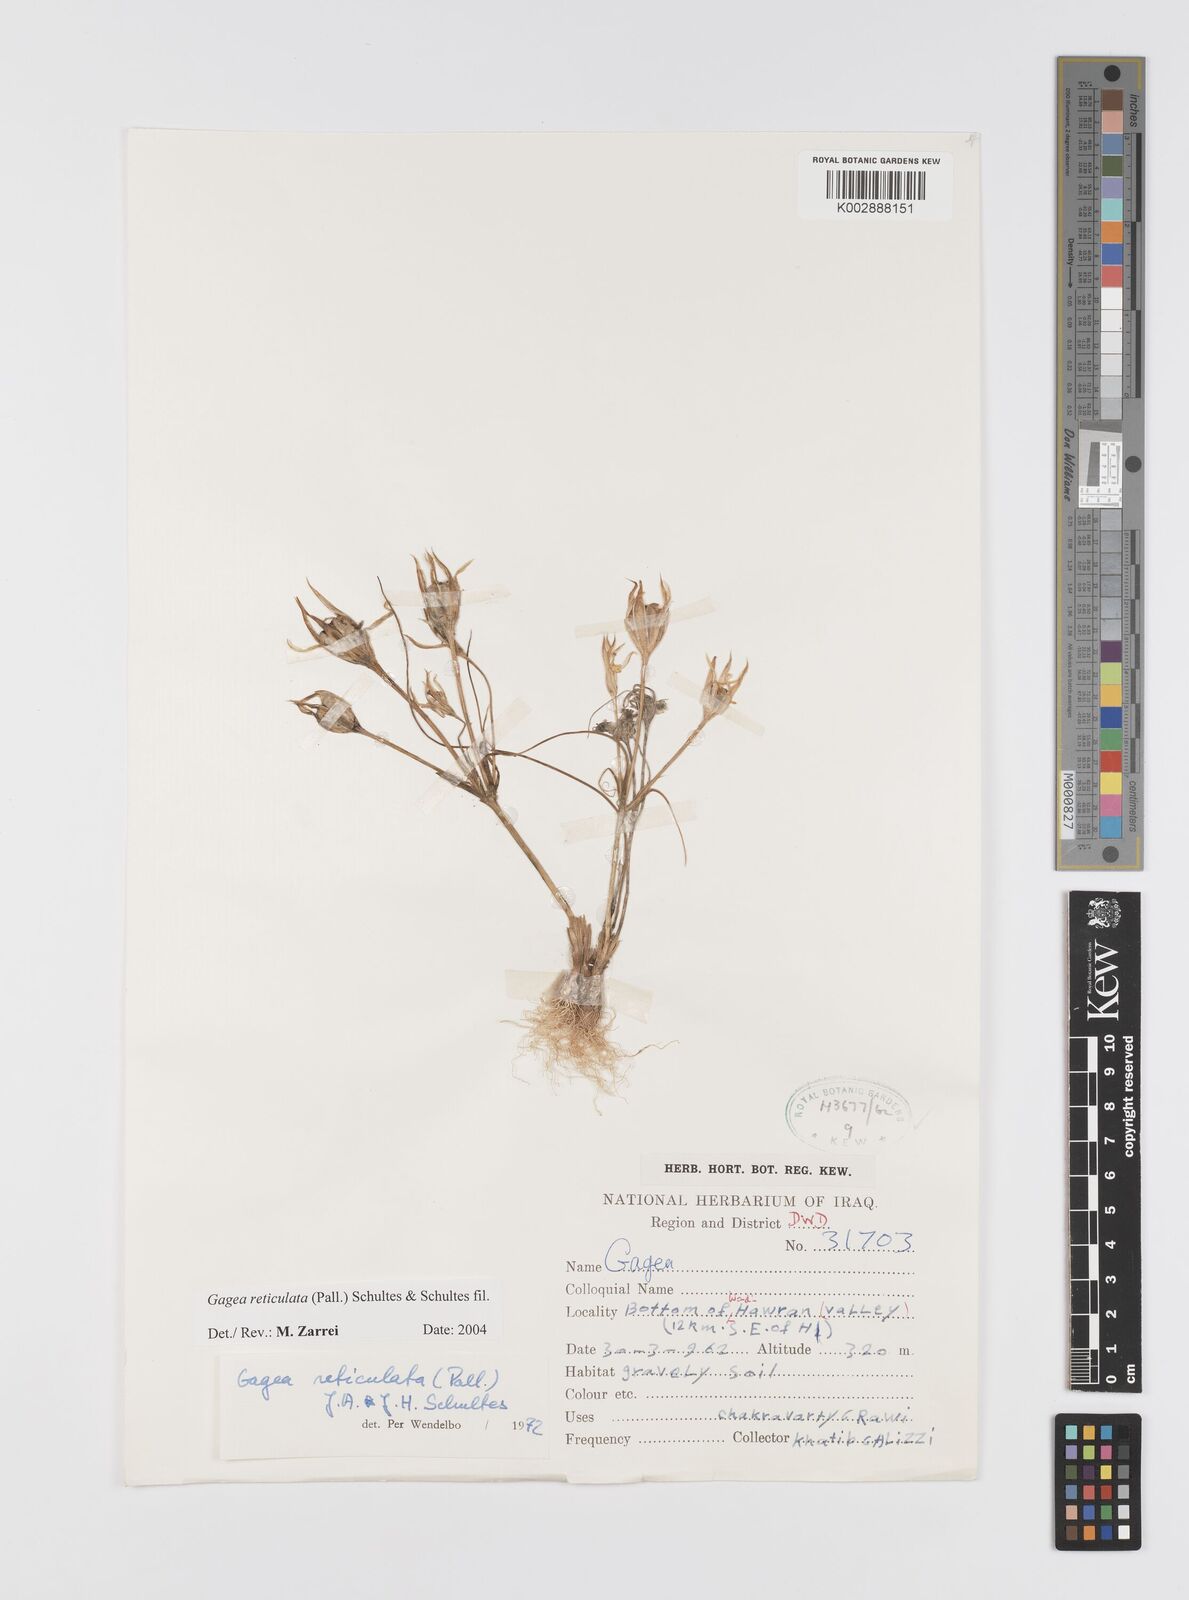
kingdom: Plantae
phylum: Tracheophyta
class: Liliopsida
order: Liliales
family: Liliaceae
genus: Gagea
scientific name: Gagea reticulata
